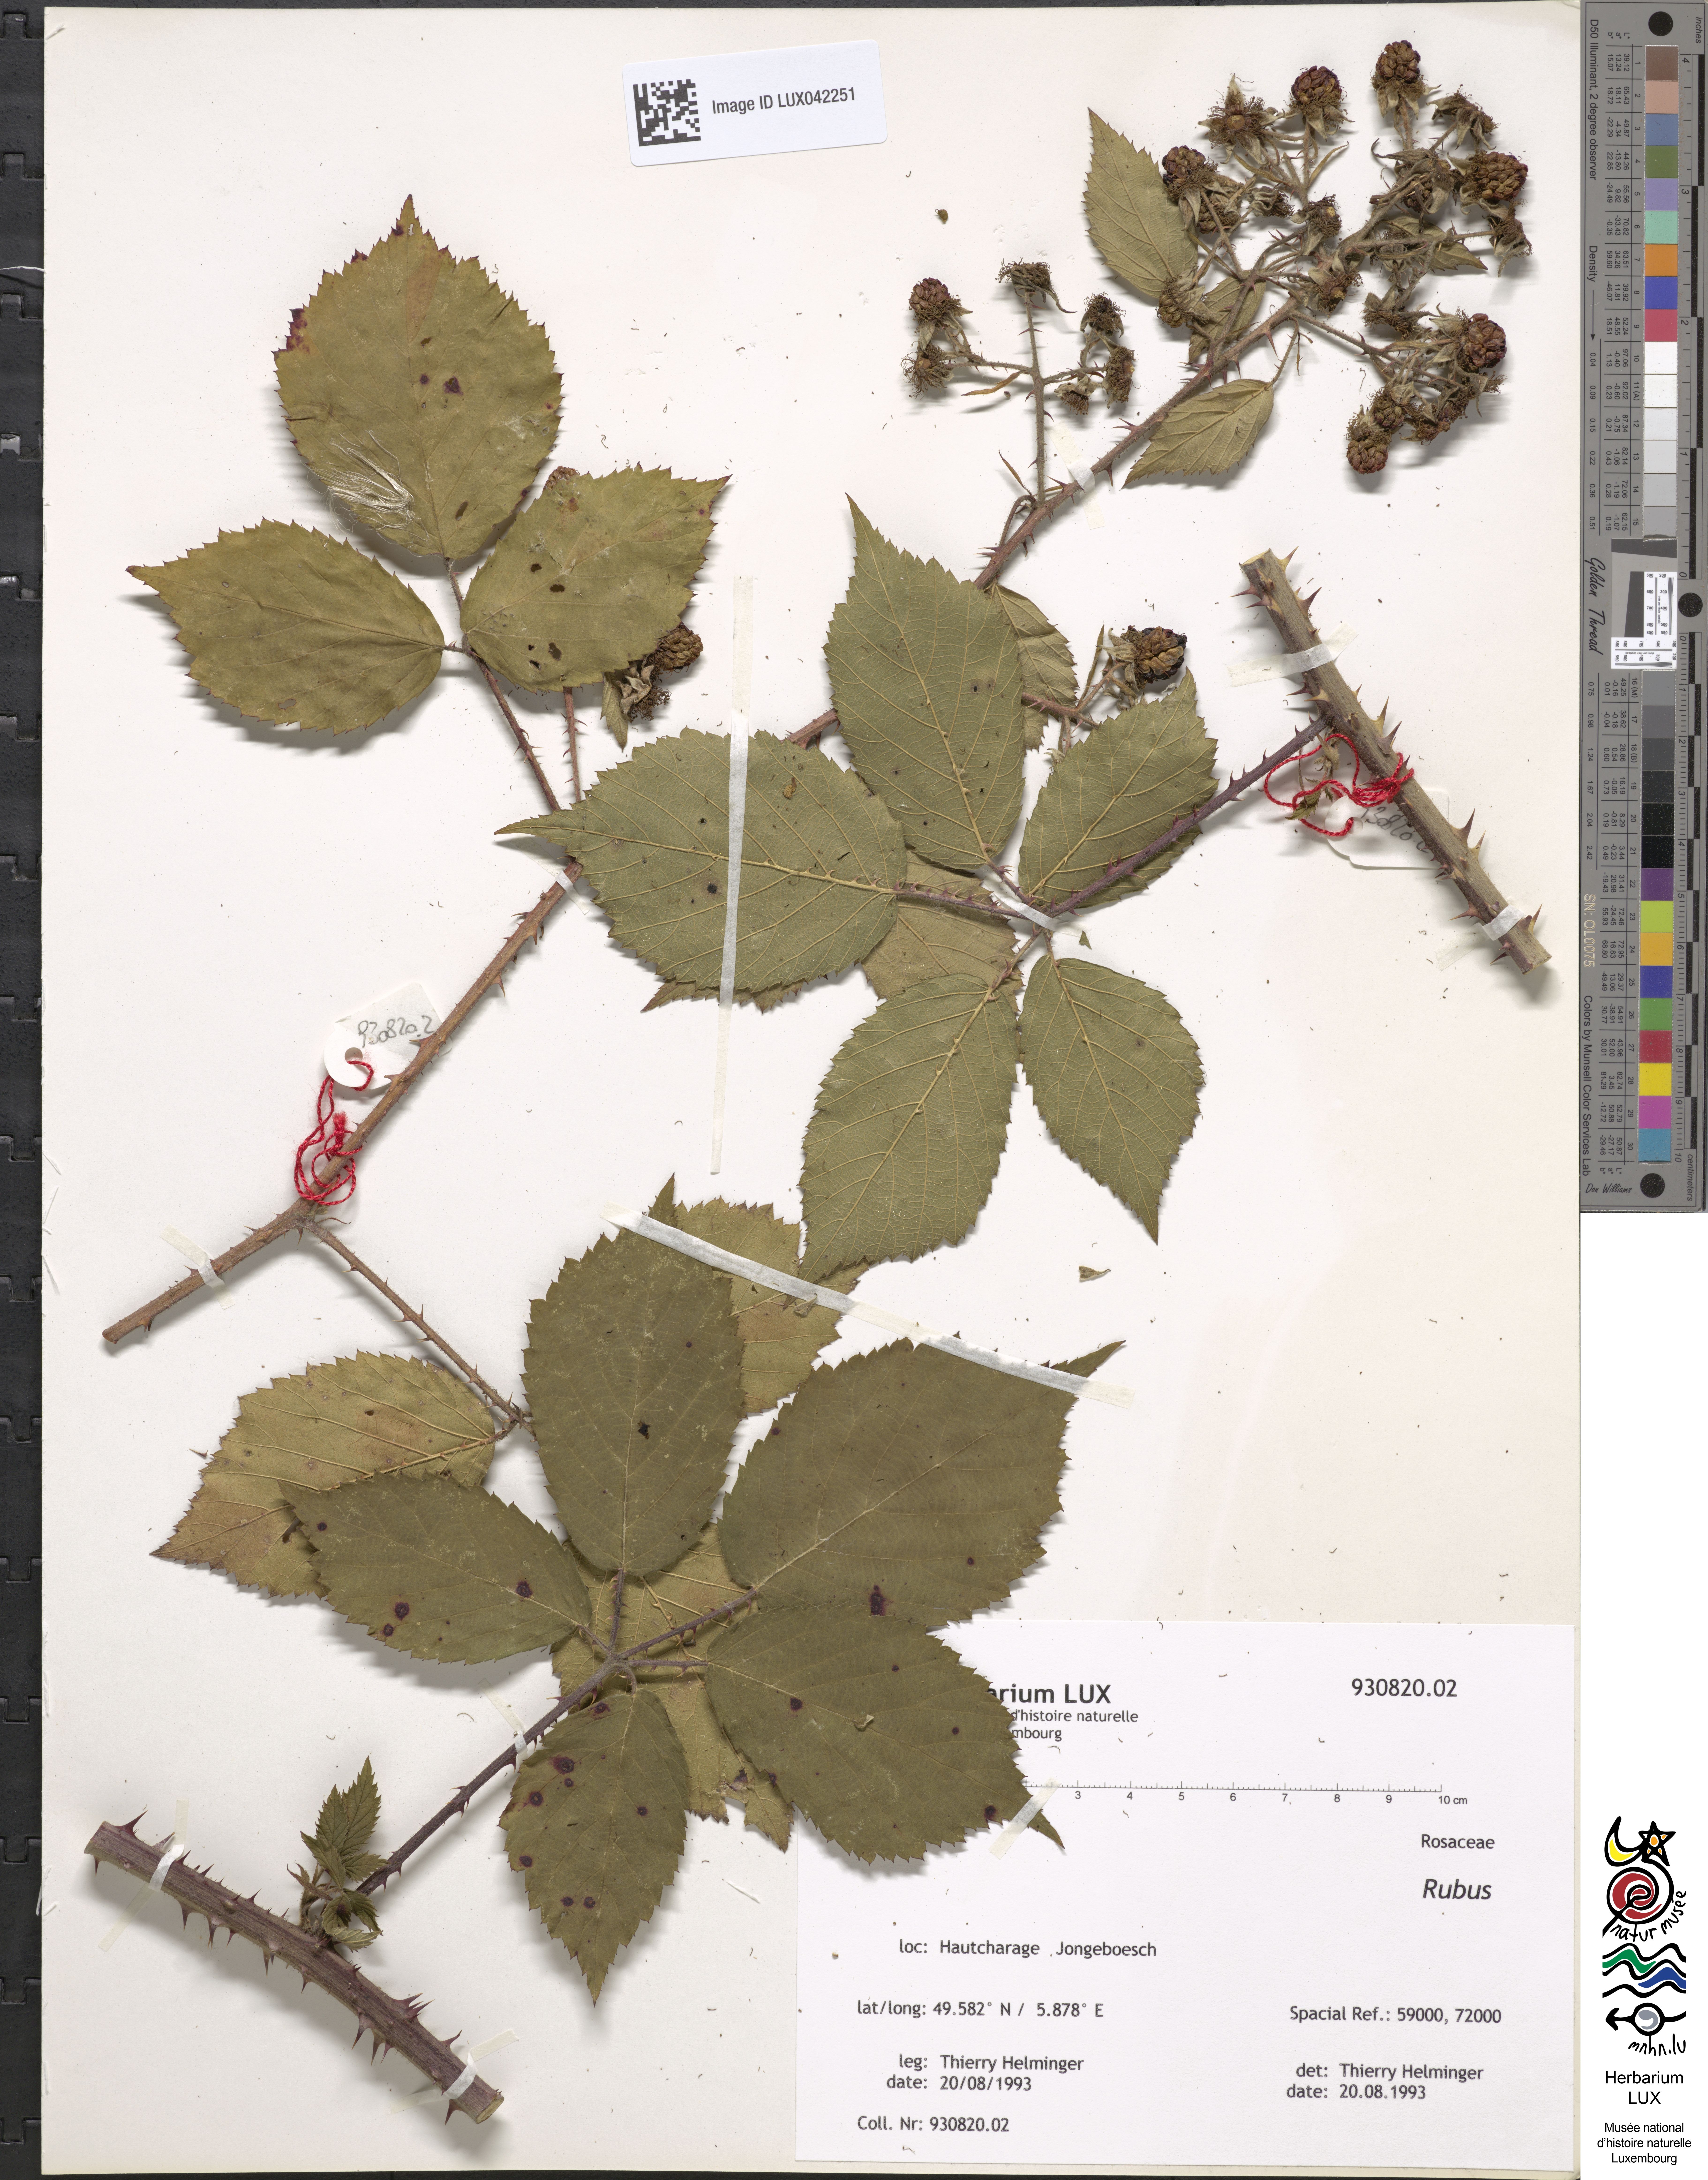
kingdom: Plantae
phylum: Tracheophyta
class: Magnoliopsida
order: Rosales
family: Rosaceae
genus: Rubus
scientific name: Rubus
